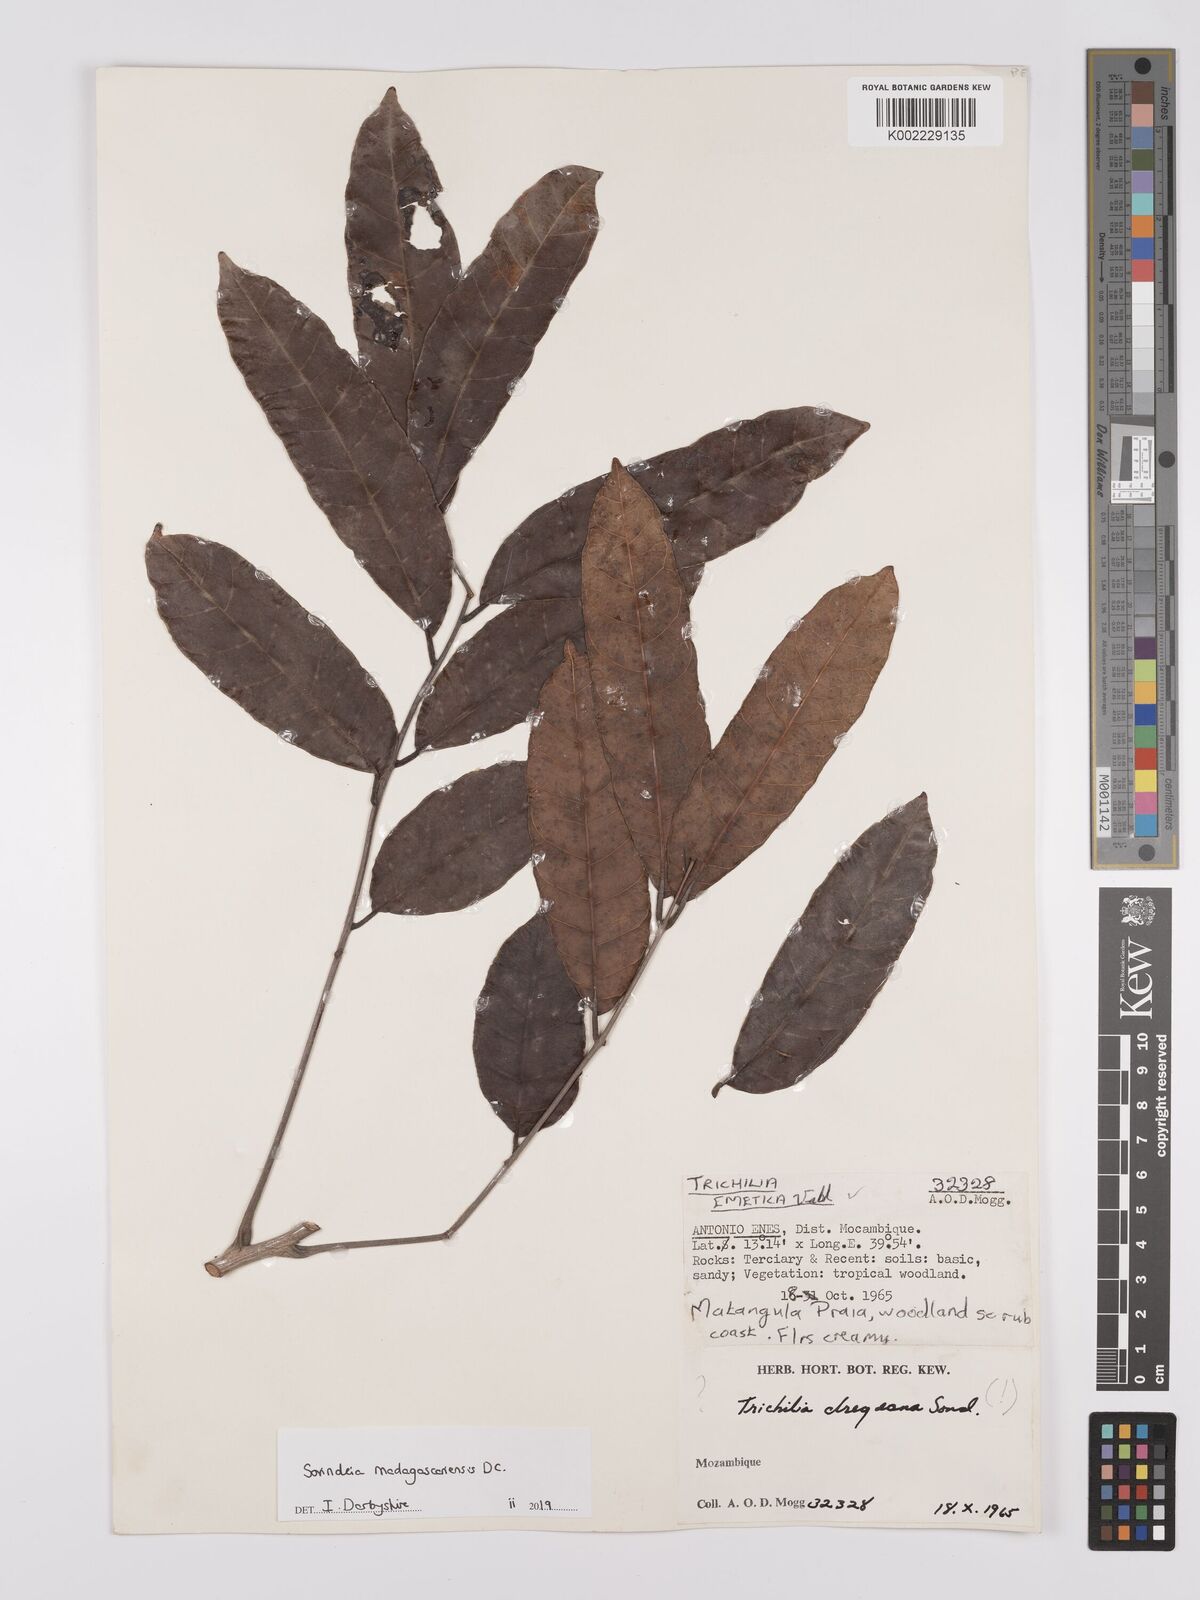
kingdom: Plantae
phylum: Tracheophyta
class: Magnoliopsida
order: Sapindales
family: Anacardiaceae
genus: Sorindeia
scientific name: Sorindeia madagascariensis
